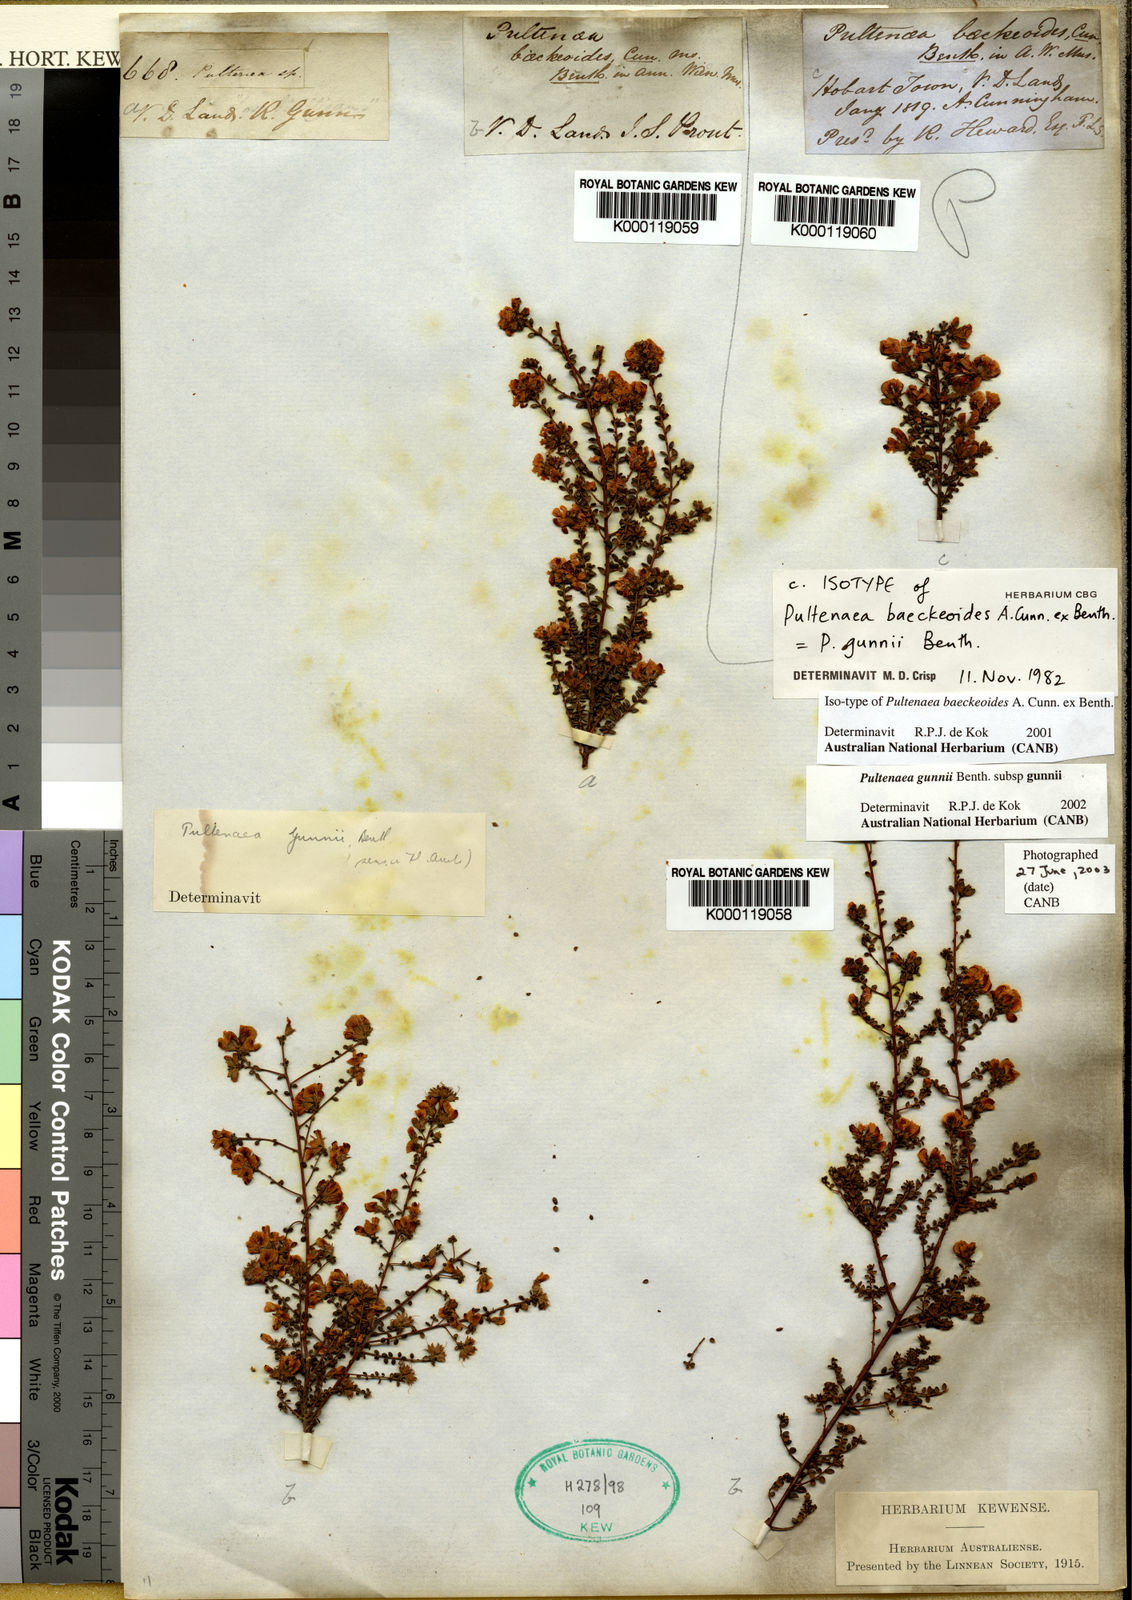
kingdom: Plantae
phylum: Tracheophyta
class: Magnoliopsida
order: Fabales
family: Fabaceae
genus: Pultenaea
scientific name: Pultenaea gunnii
